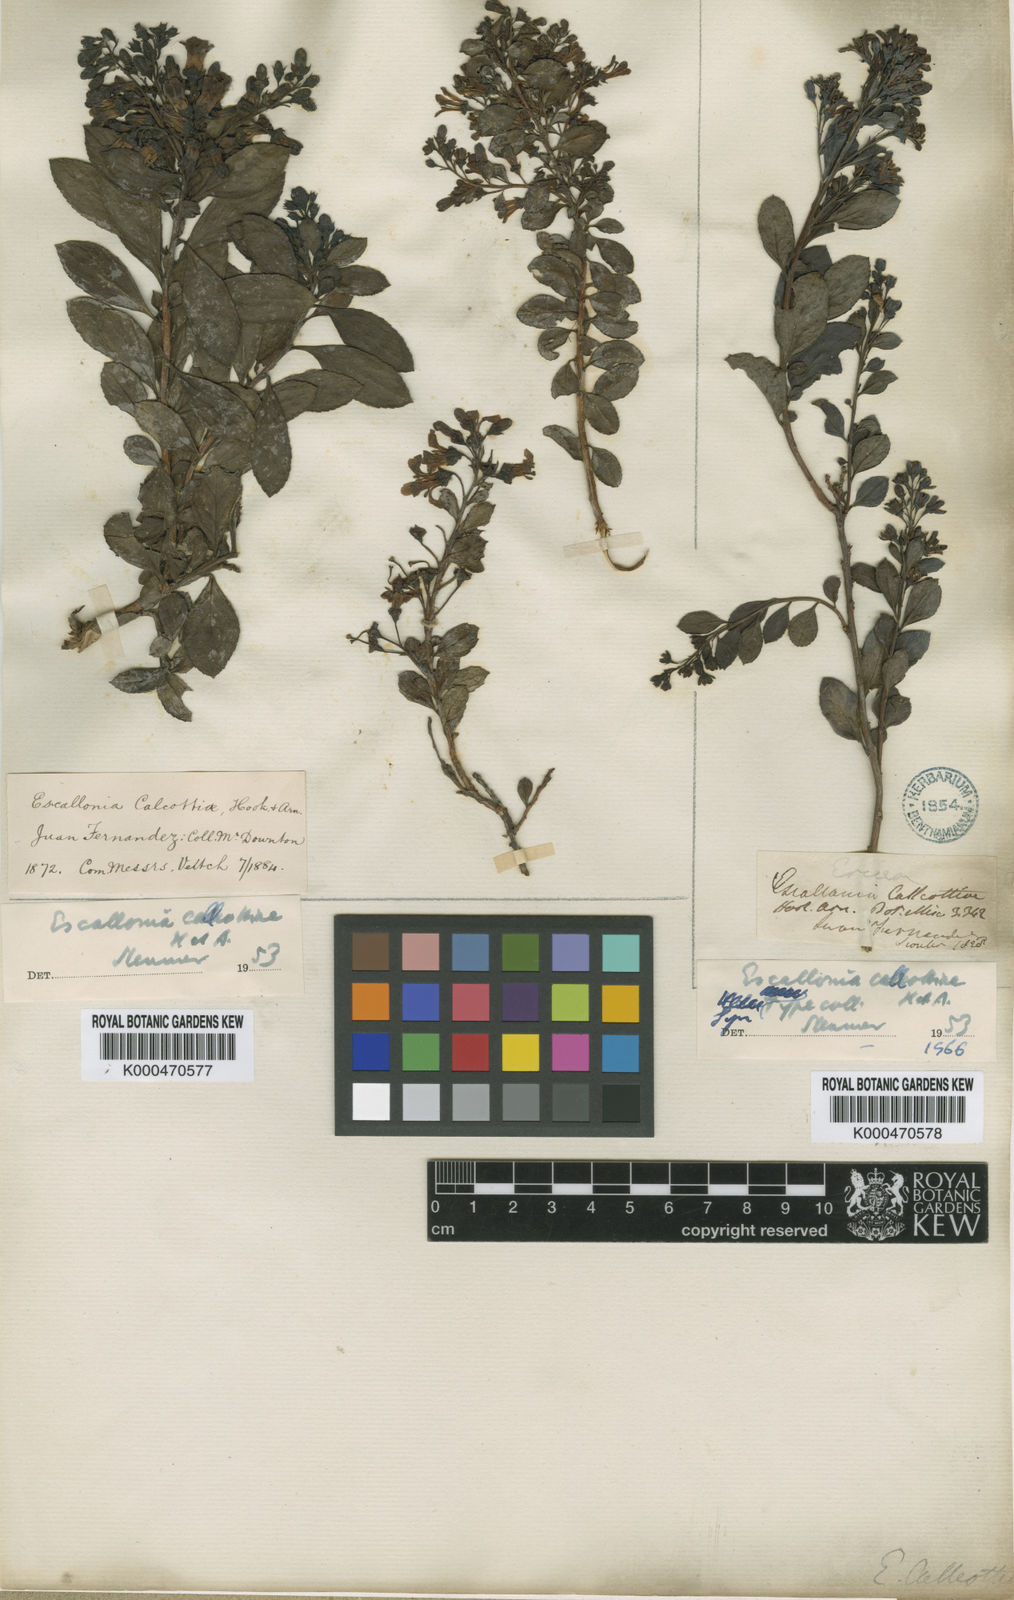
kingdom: Plantae
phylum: Tracheophyta
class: Magnoliopsida
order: Escalloniales
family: Escalloniaceae
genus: Escallonia
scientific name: Escallonia callcottiae
